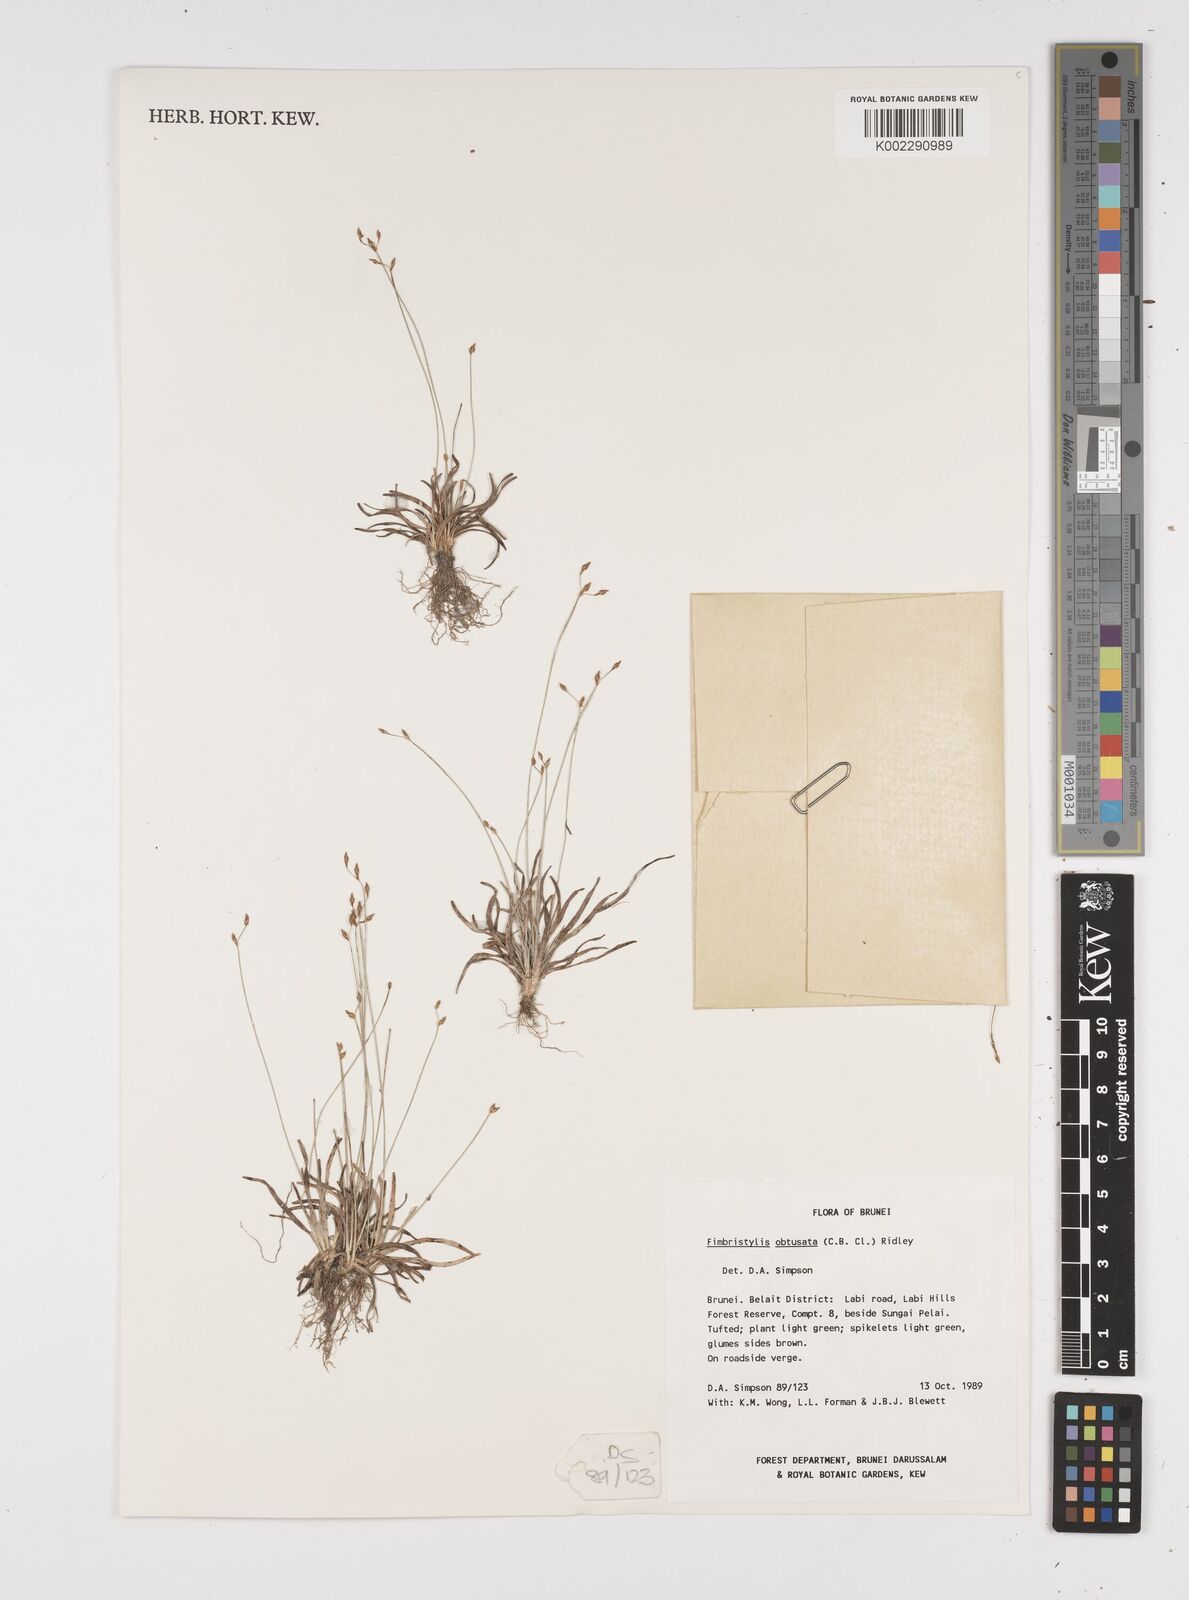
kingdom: Plantae
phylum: Tracheophyta
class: Liliopsida
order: Poales
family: Cyperaceae
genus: Fimbristylis
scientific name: Fimbristylis obtusata
